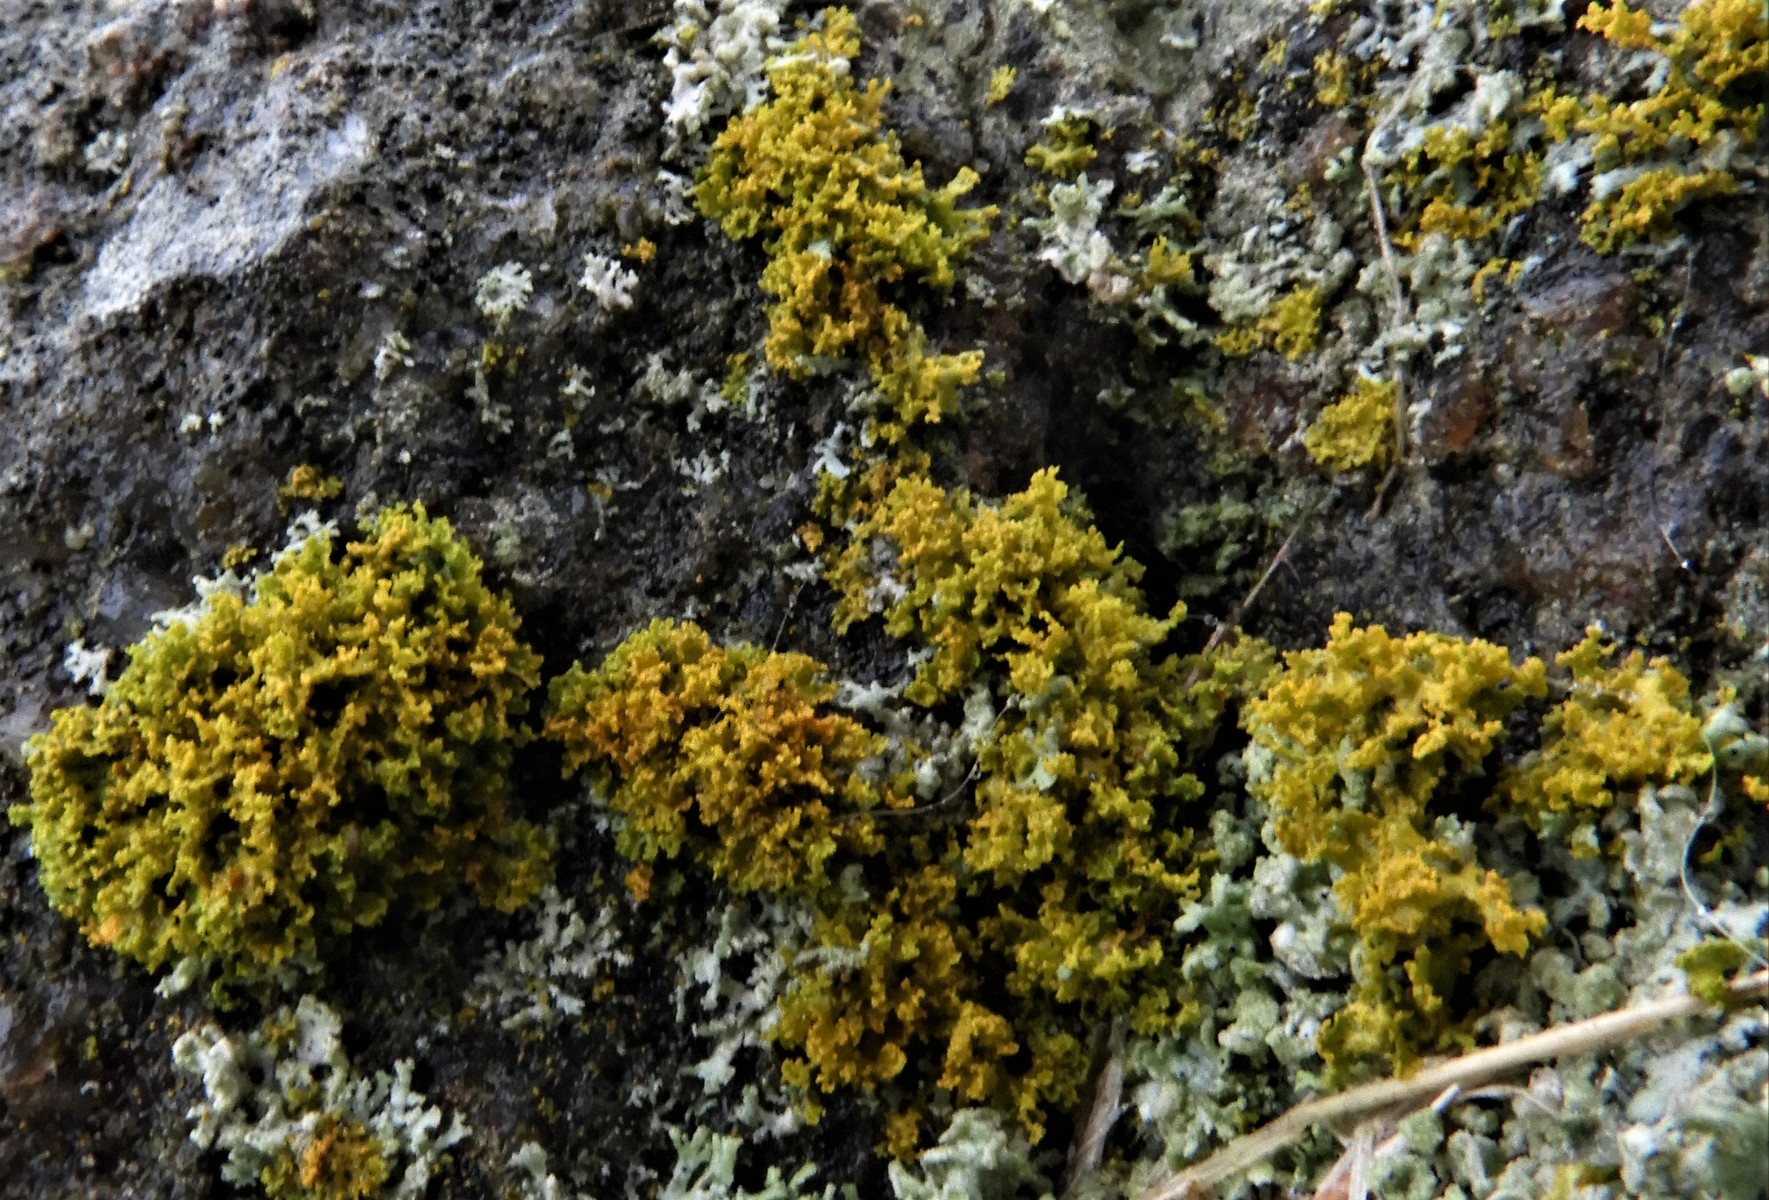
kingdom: Fungi
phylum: Ascomycota
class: Lecanoromycetes
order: Teloschistales
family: Teloschistaceae
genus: Polycauliona
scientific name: Polycauliona candelaria
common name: tue-orangelav
